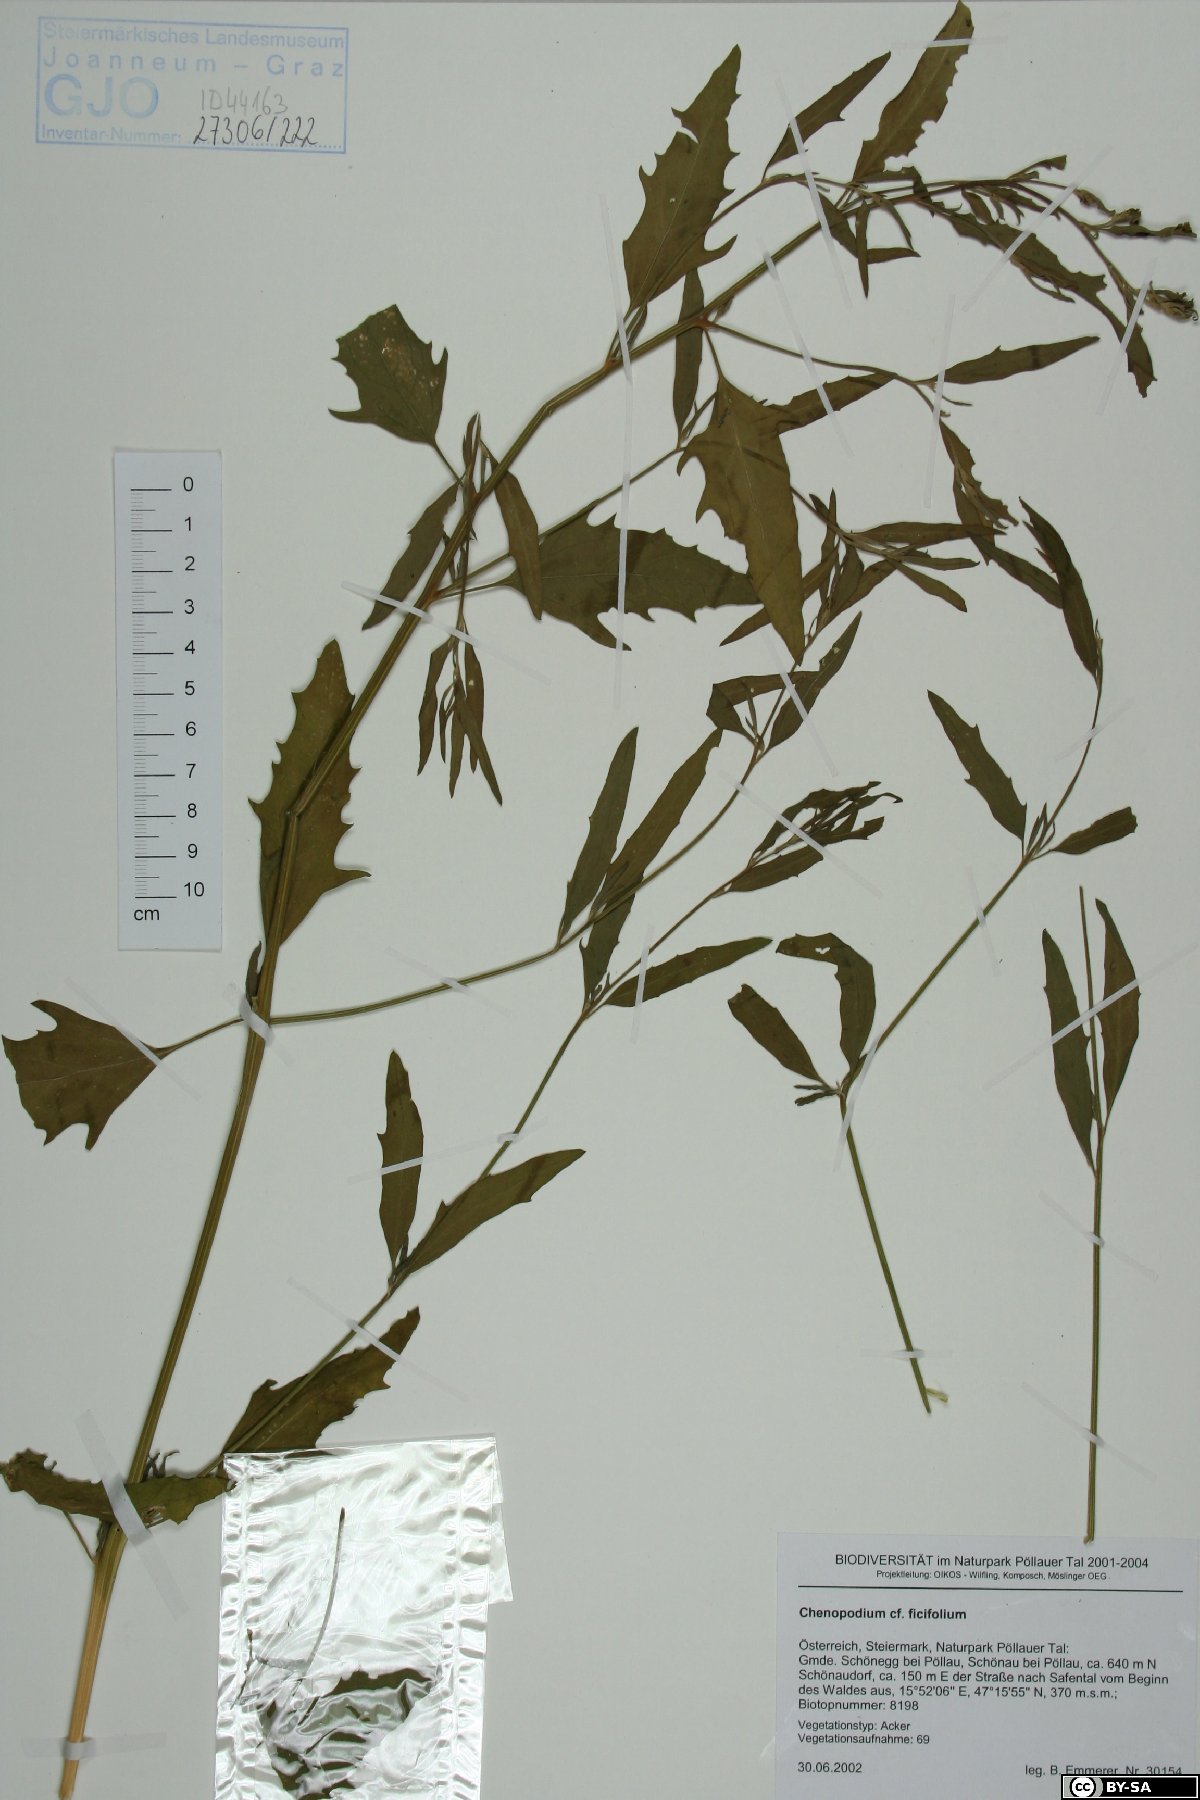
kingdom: Plantae
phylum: Tracheophyta
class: Magnoliopsida
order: Caryophyllales
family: Amaranthaceae
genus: Atriplex
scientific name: Atriplex patula
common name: Common orache
